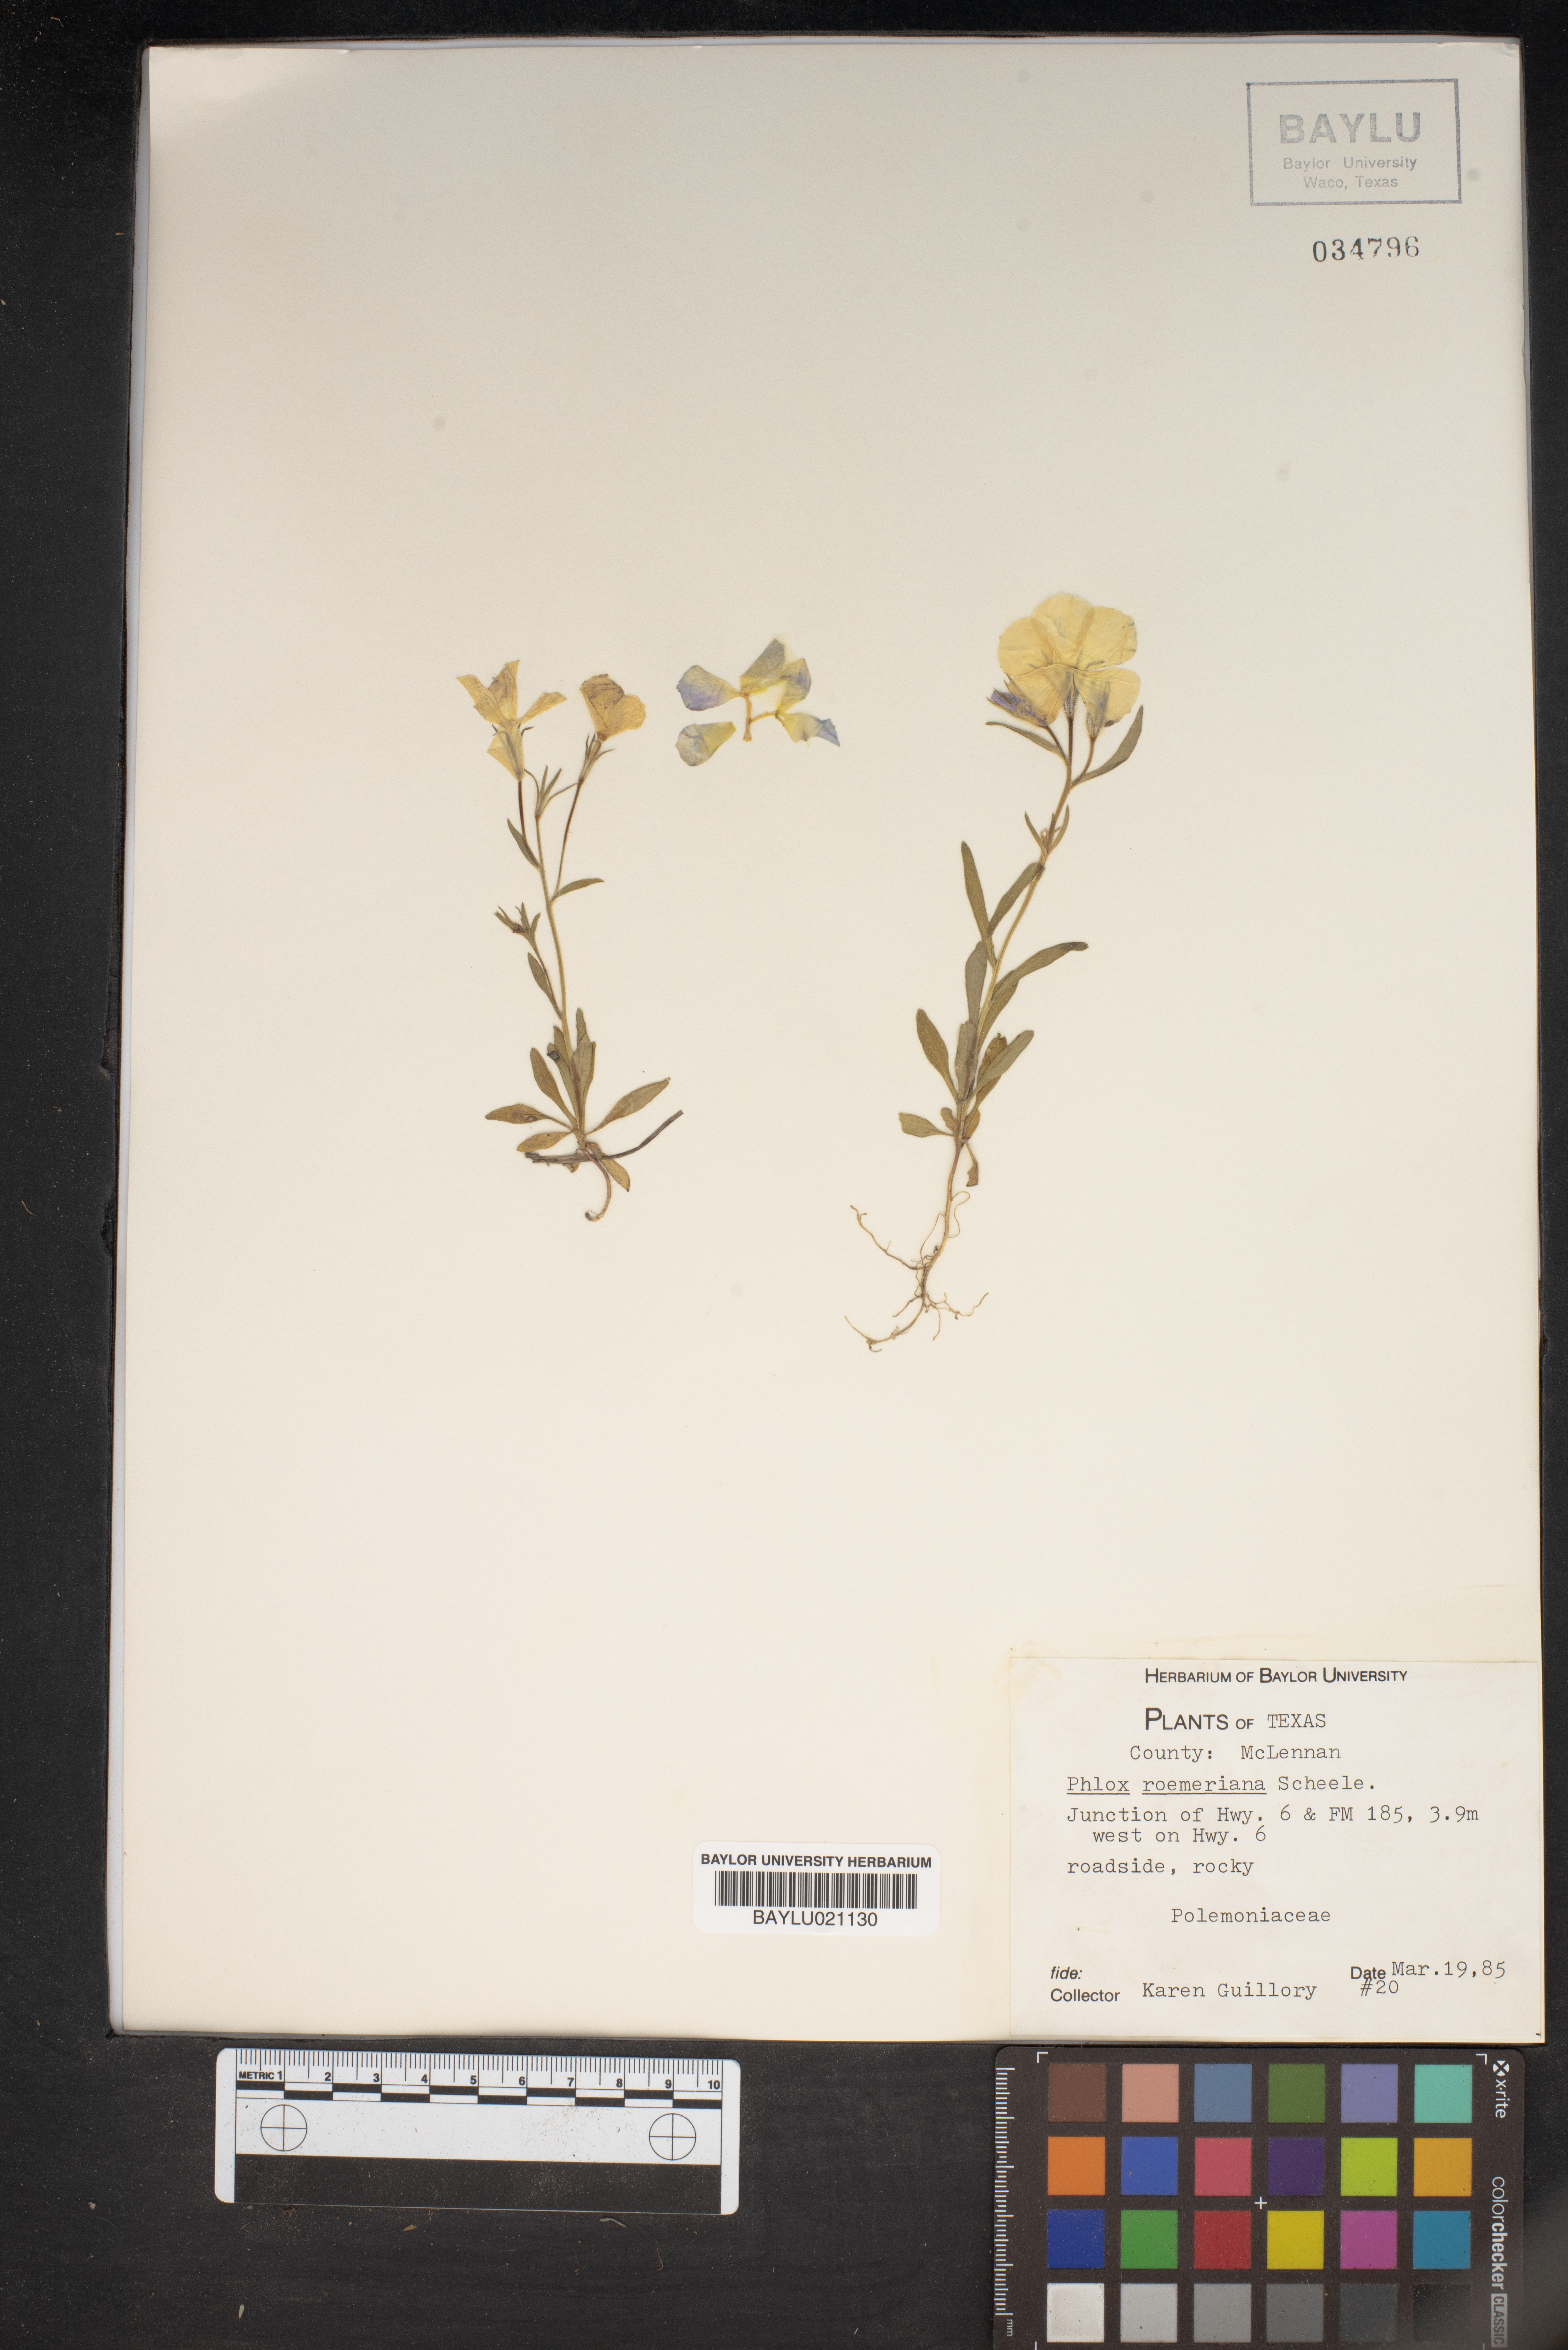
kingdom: Plantae
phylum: Tracheophyta
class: Magnoliopsida
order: Ericales
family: Polemoniaceae
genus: Phlox
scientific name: Phlox roemeriana
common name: Roemer's phlox
